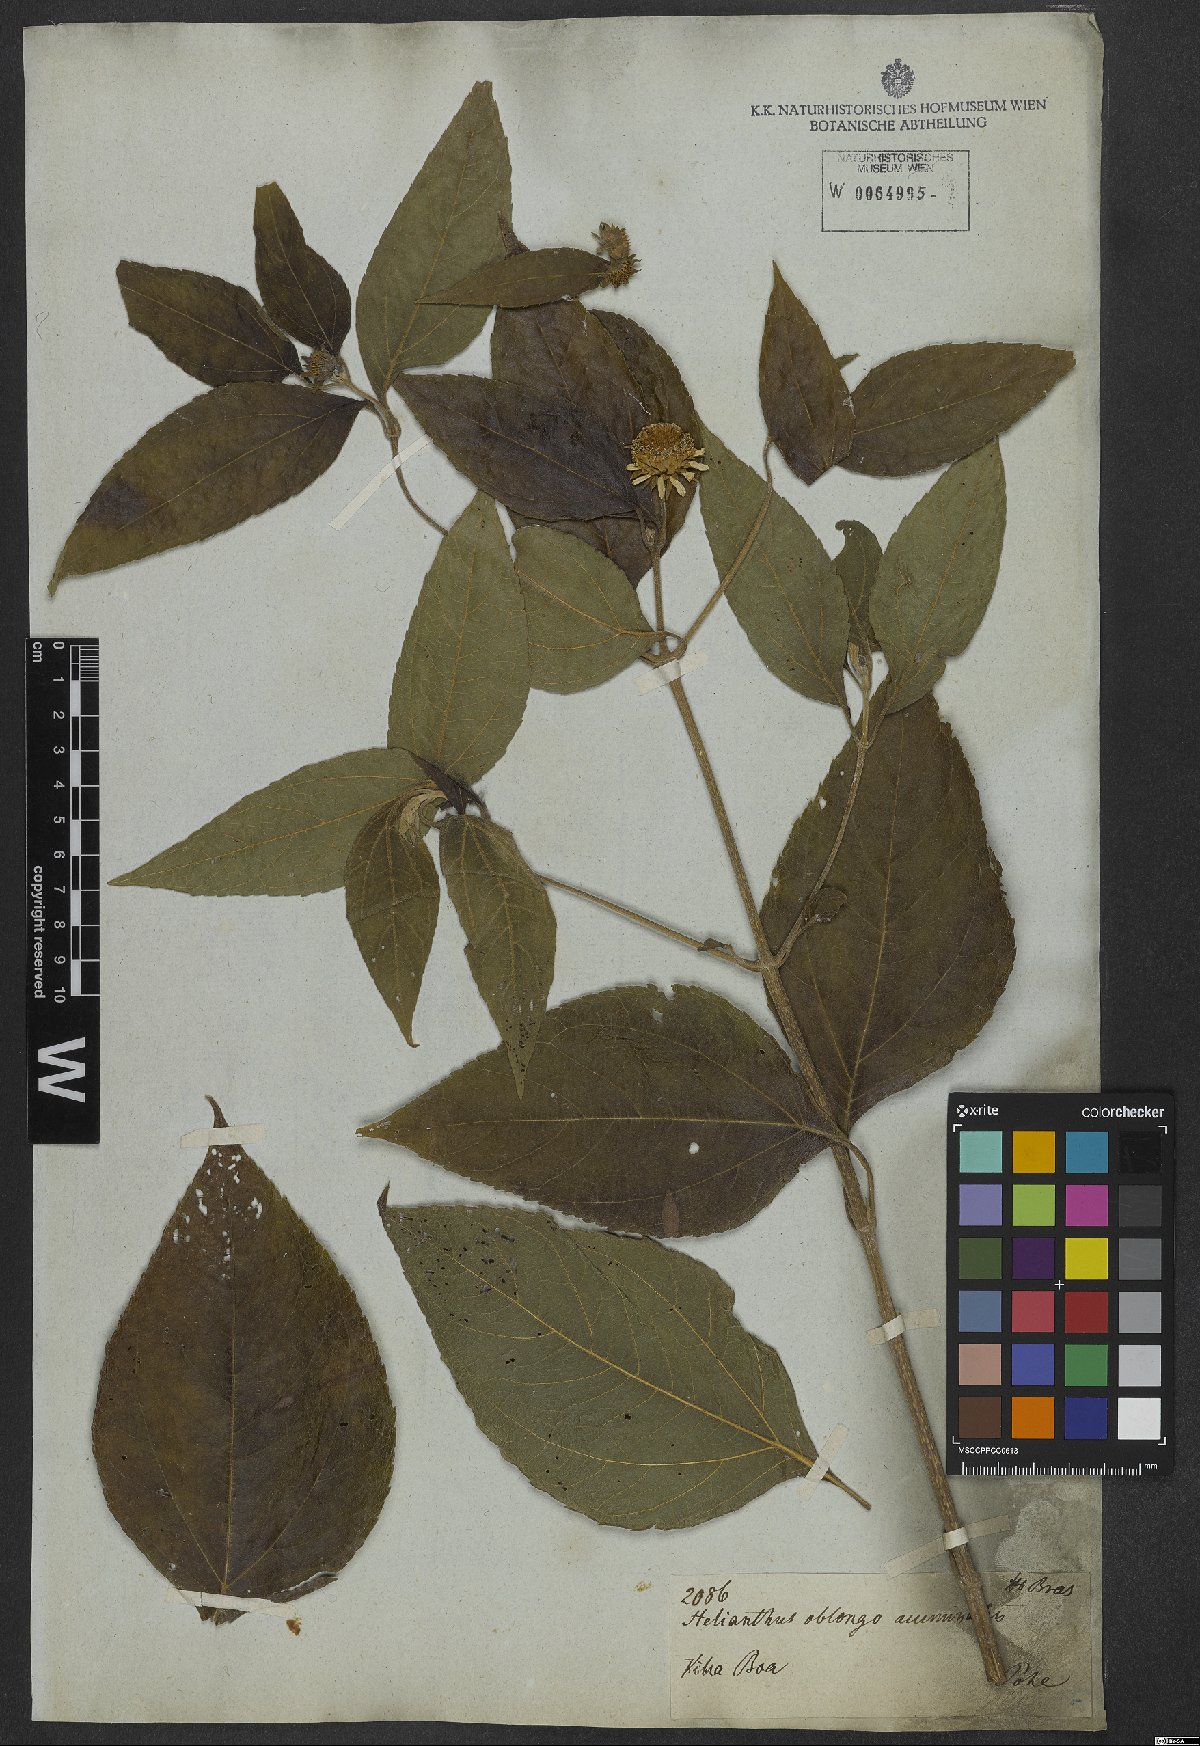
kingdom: Plantae
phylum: Tracheophyta
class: Magnoliopsida
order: Asterales
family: Asteraceae
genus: Tilesia
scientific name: Tilesia baccata
